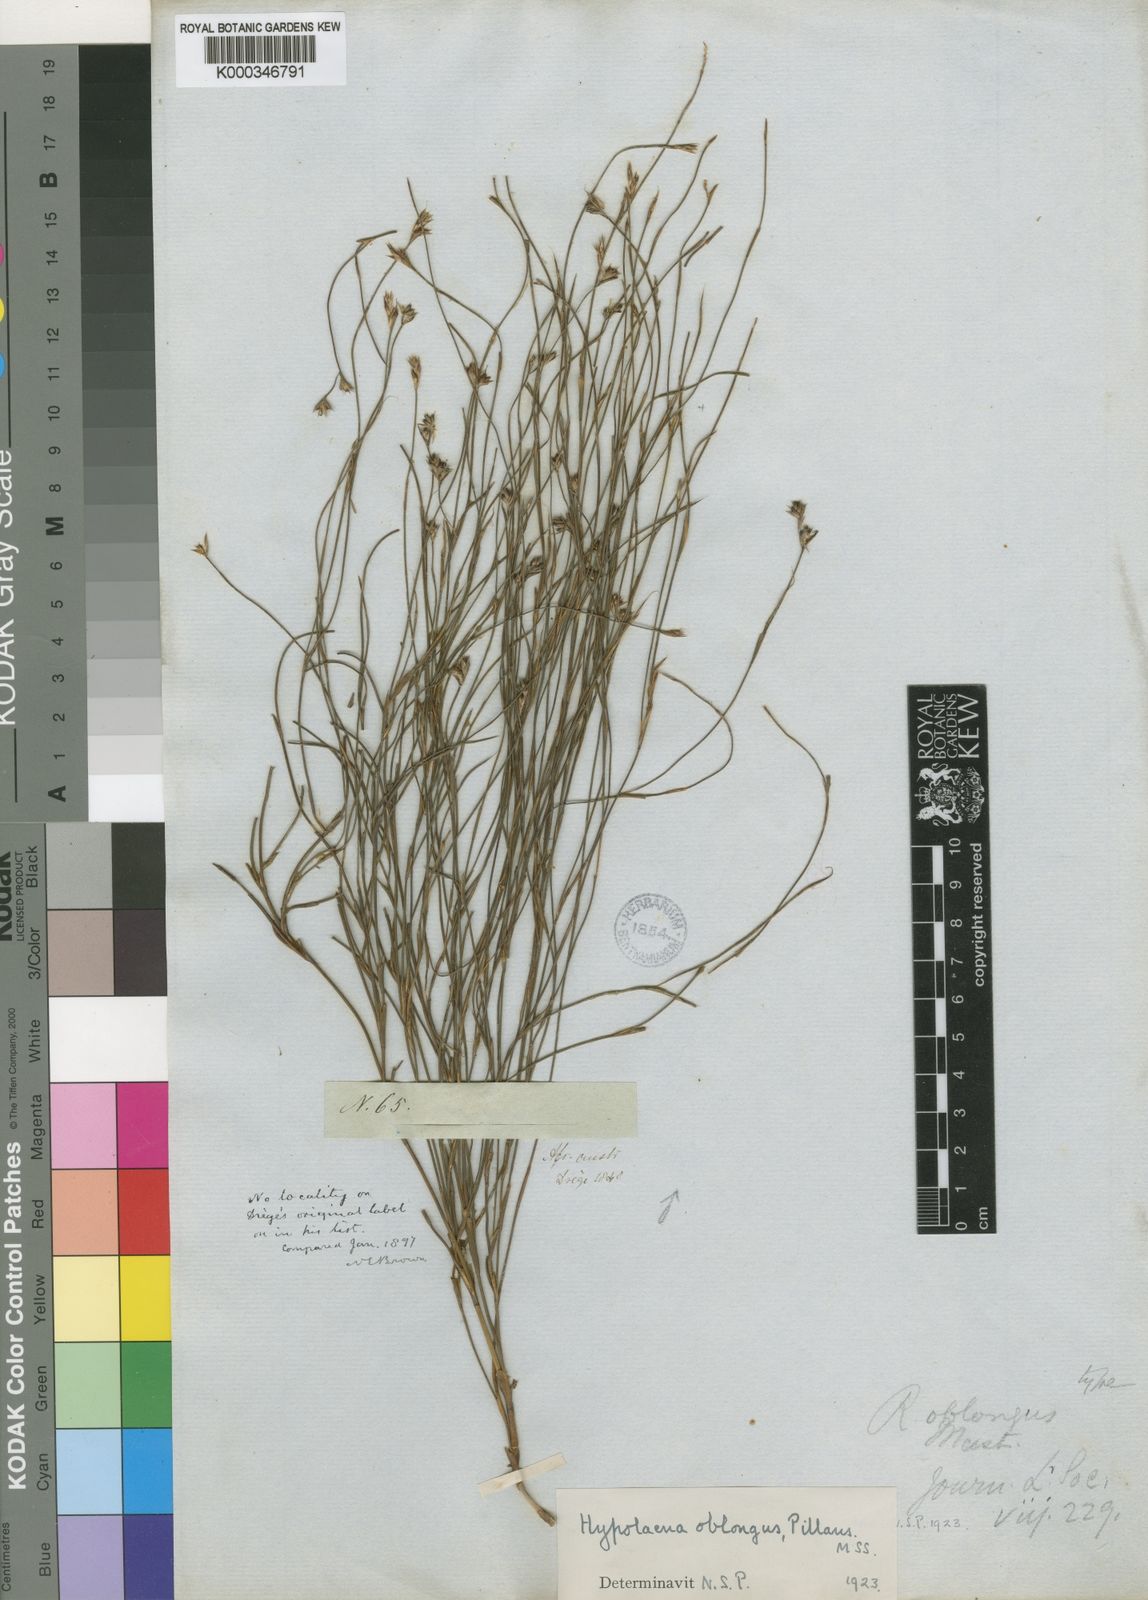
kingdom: Plantae
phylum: Tracheophyta
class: Liliopsida
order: Poales
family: Restionaceae
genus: Anthochortus
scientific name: Anthochortus crinalis
